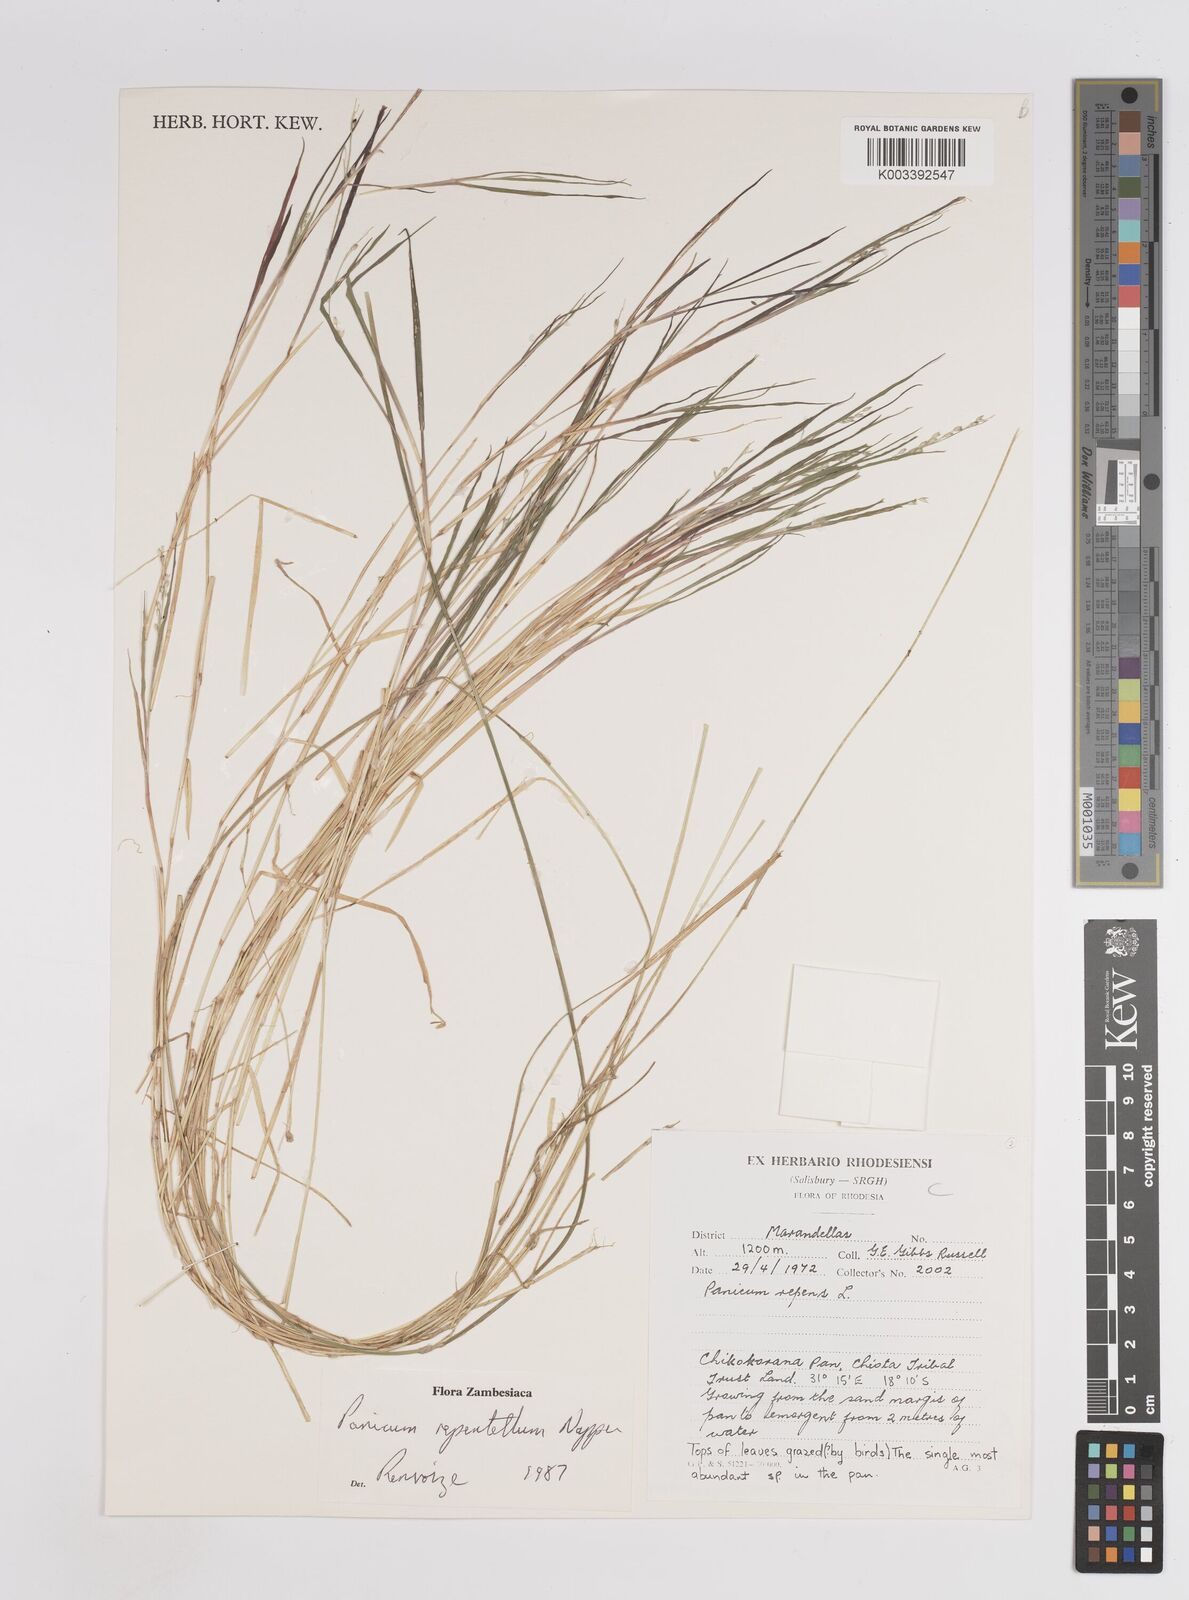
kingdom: Plantae
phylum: Tracheophyta
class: Liliopsida
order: Poales
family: Poaceae
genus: Panicum
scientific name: Panicum hygrocharis
